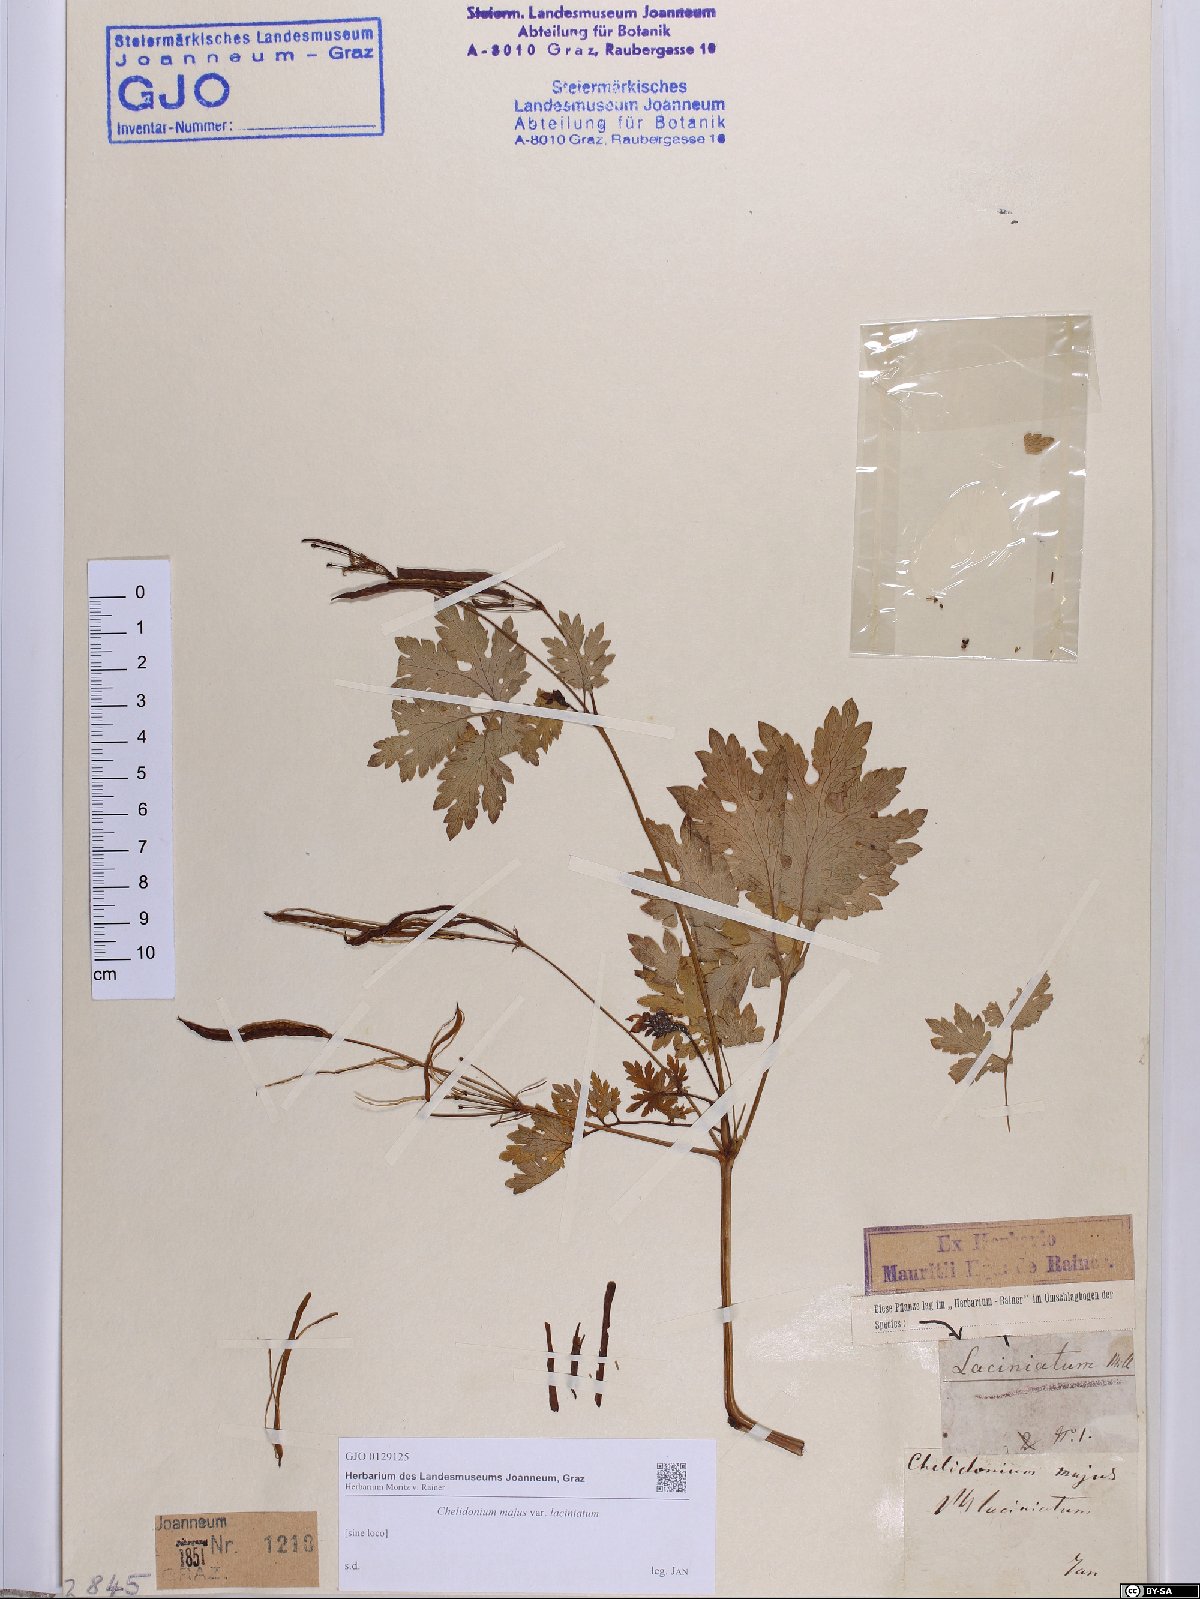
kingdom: Plantae
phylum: Tracheophyta
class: Magnoliopsida
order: Ranunculales
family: Papaveraceae
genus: Chelidonium
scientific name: Chelidonium majus
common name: Greater celandine
